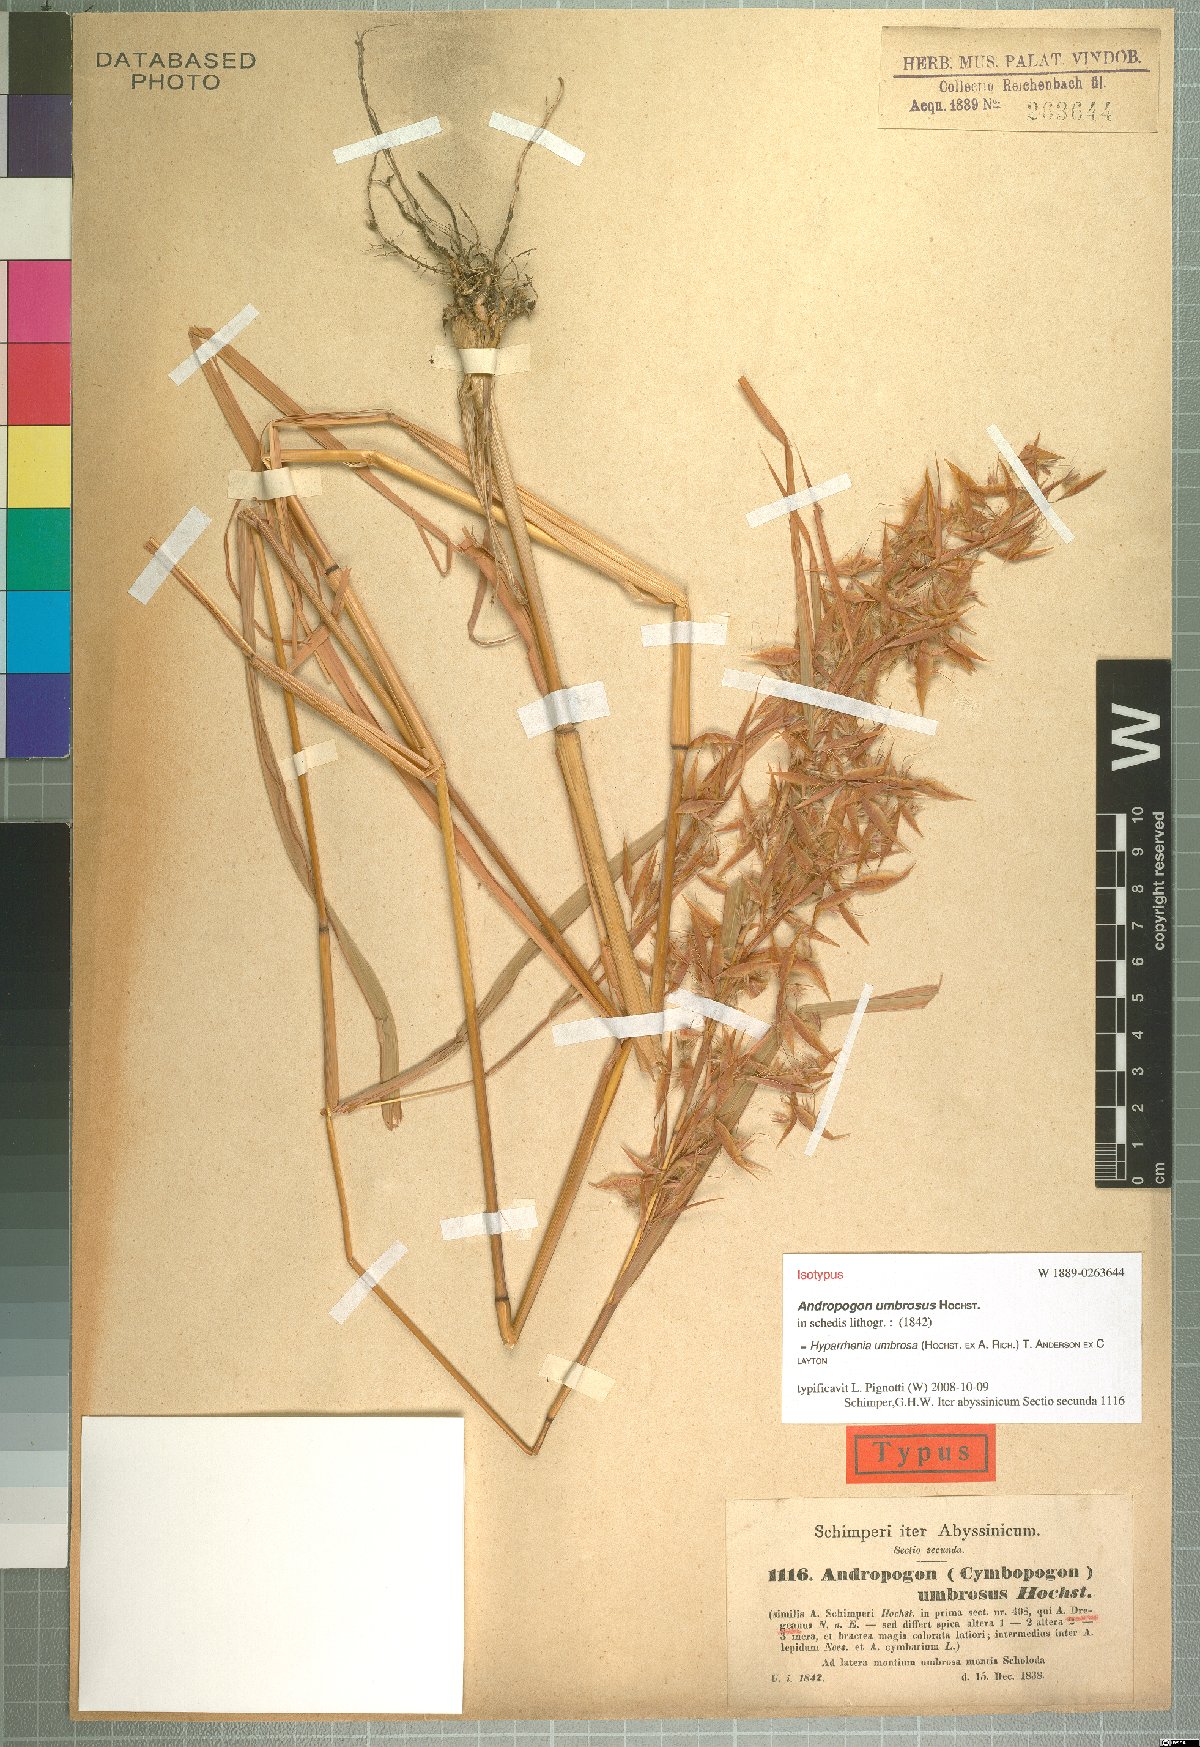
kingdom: Plantae
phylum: Tracheophyta
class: Liliopsida
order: Poales
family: Poaceae
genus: Hyparrhenia
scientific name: Hyparrhenia umbrosa
